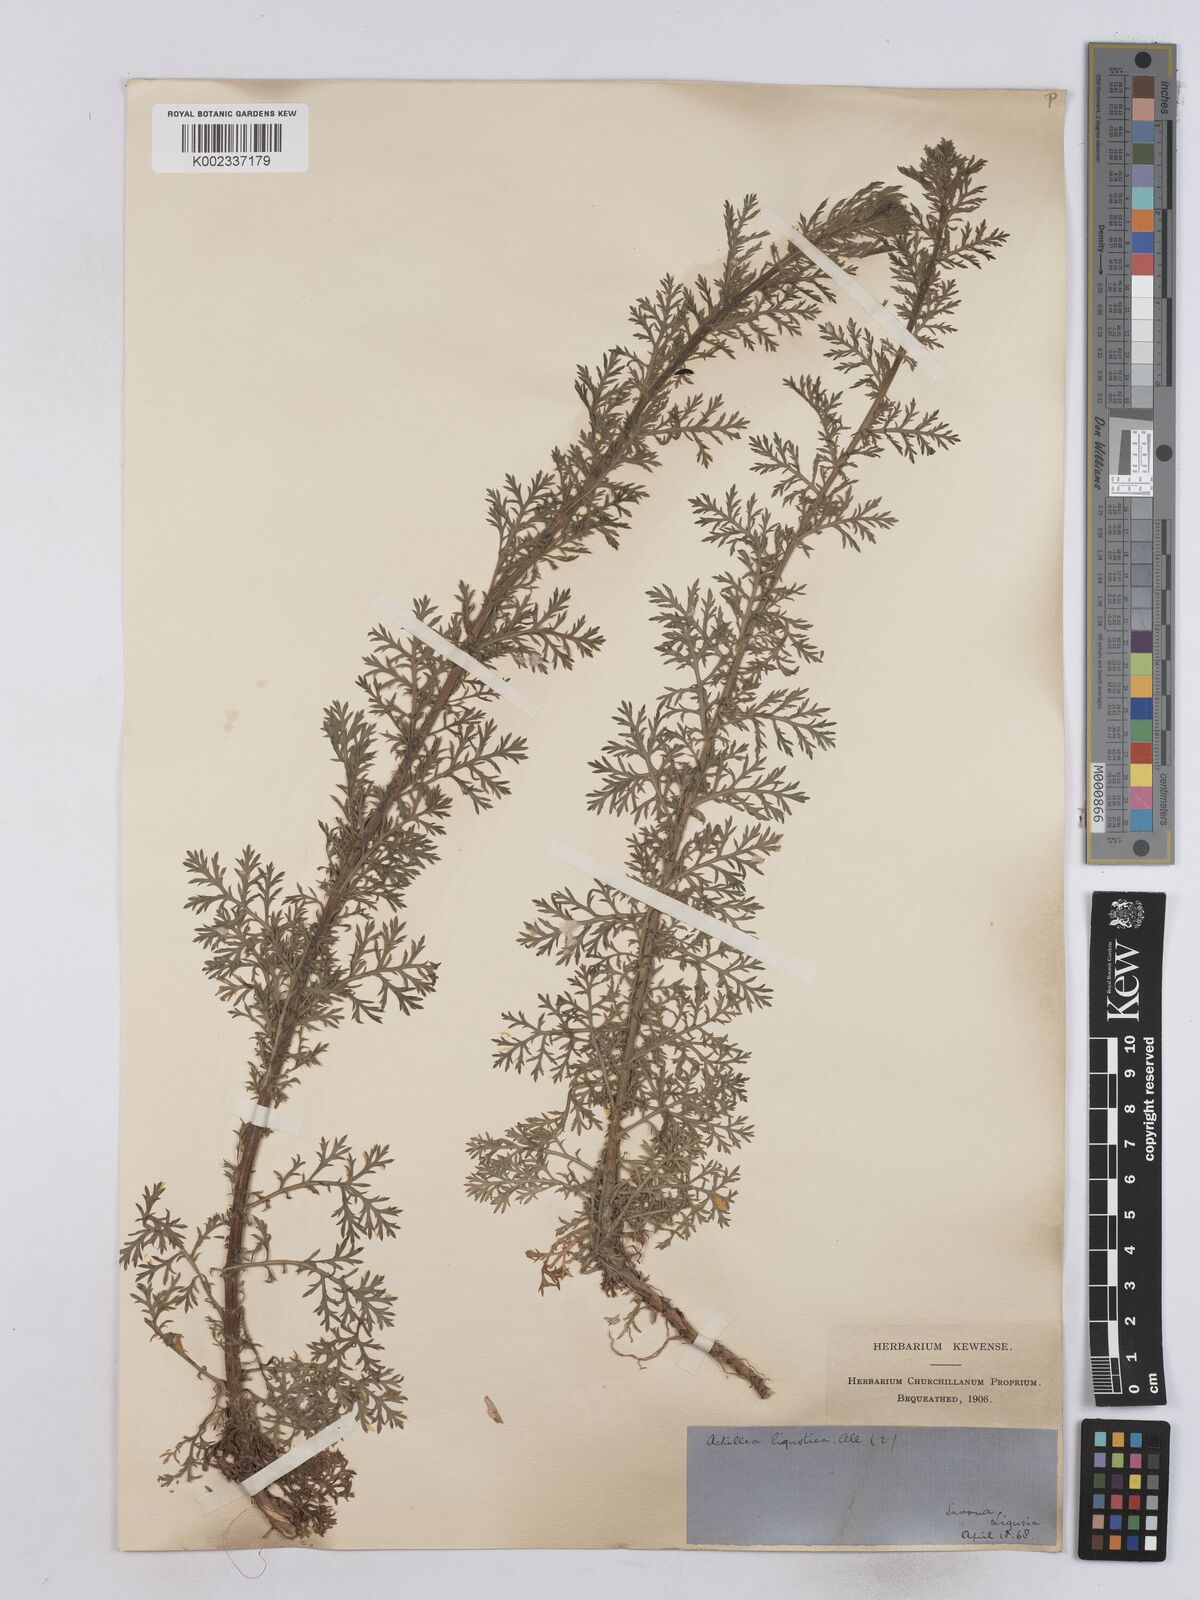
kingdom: Plantae
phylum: Tracheophyta
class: Magnoliopsida
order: Asterales
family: Asteraceae
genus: Achillea
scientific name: Achillea ligustica
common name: Southern yarrow
